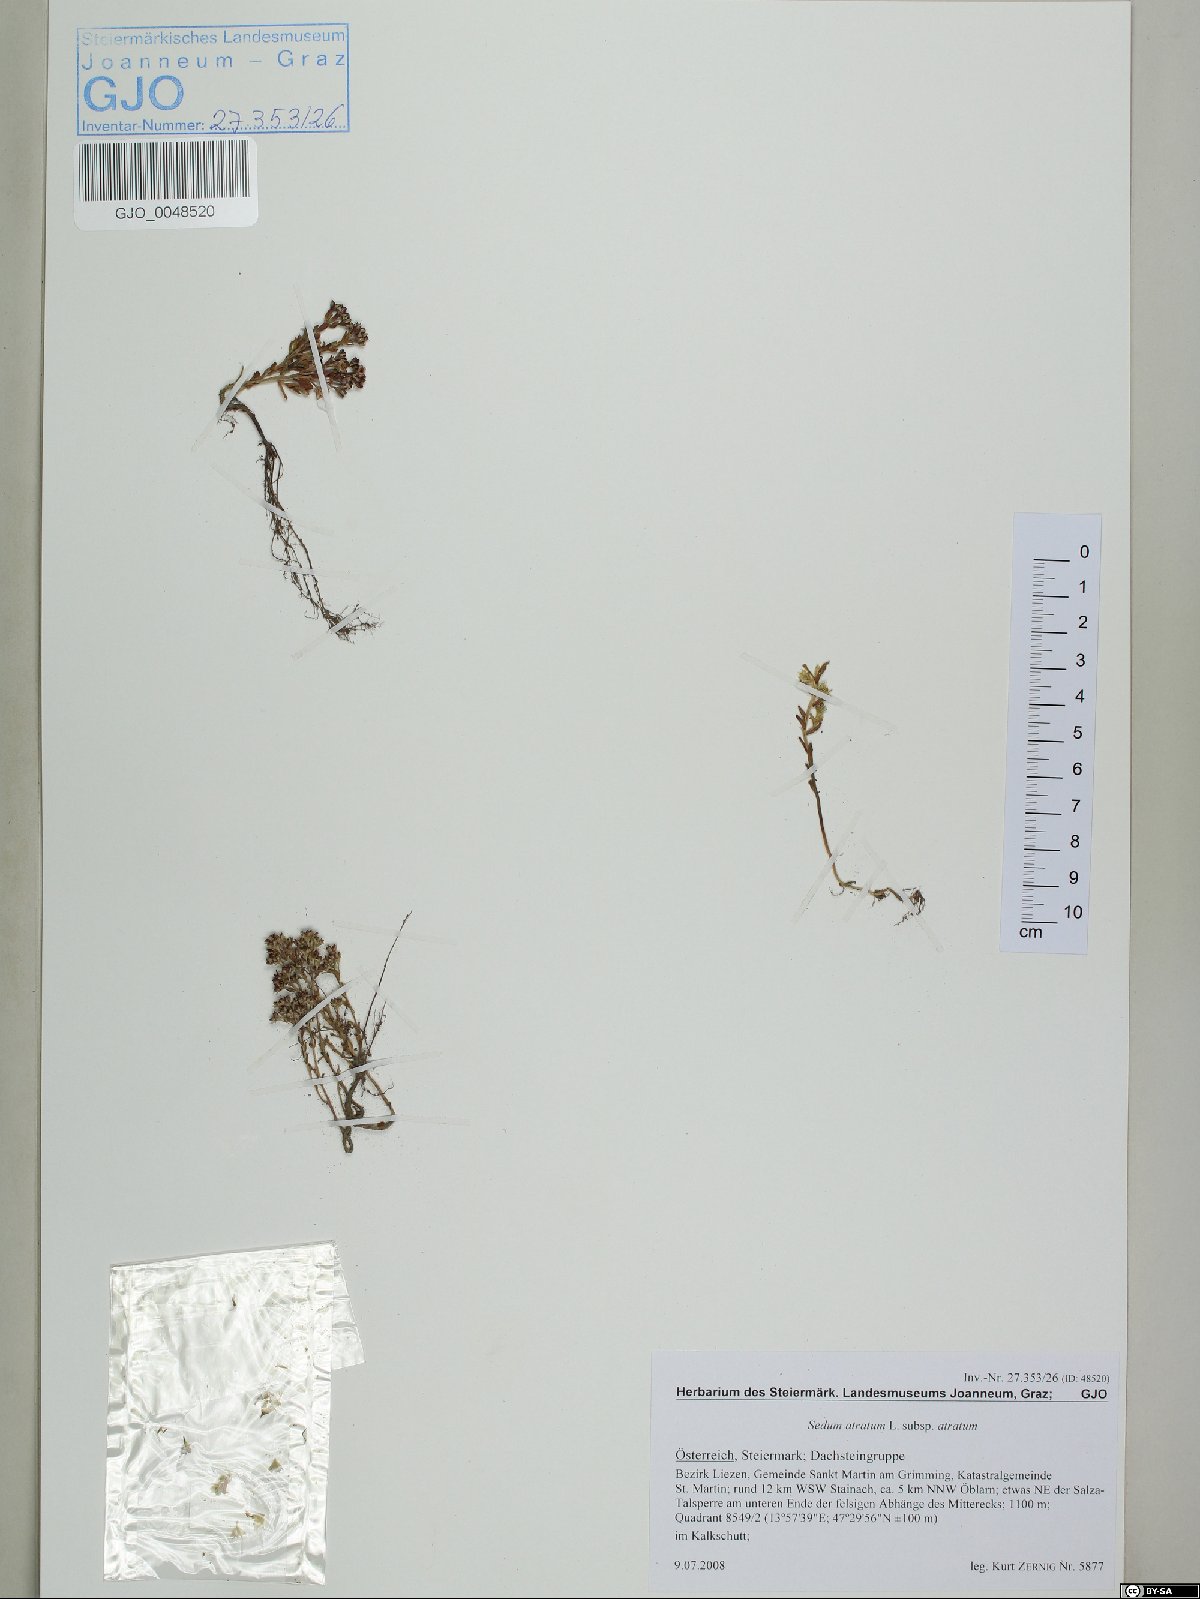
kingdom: Plantae
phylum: Tracheophyta
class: Magnoliopsida
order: Saxifragales
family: Crassulaceae
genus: Sedum
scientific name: Sedum atratum
